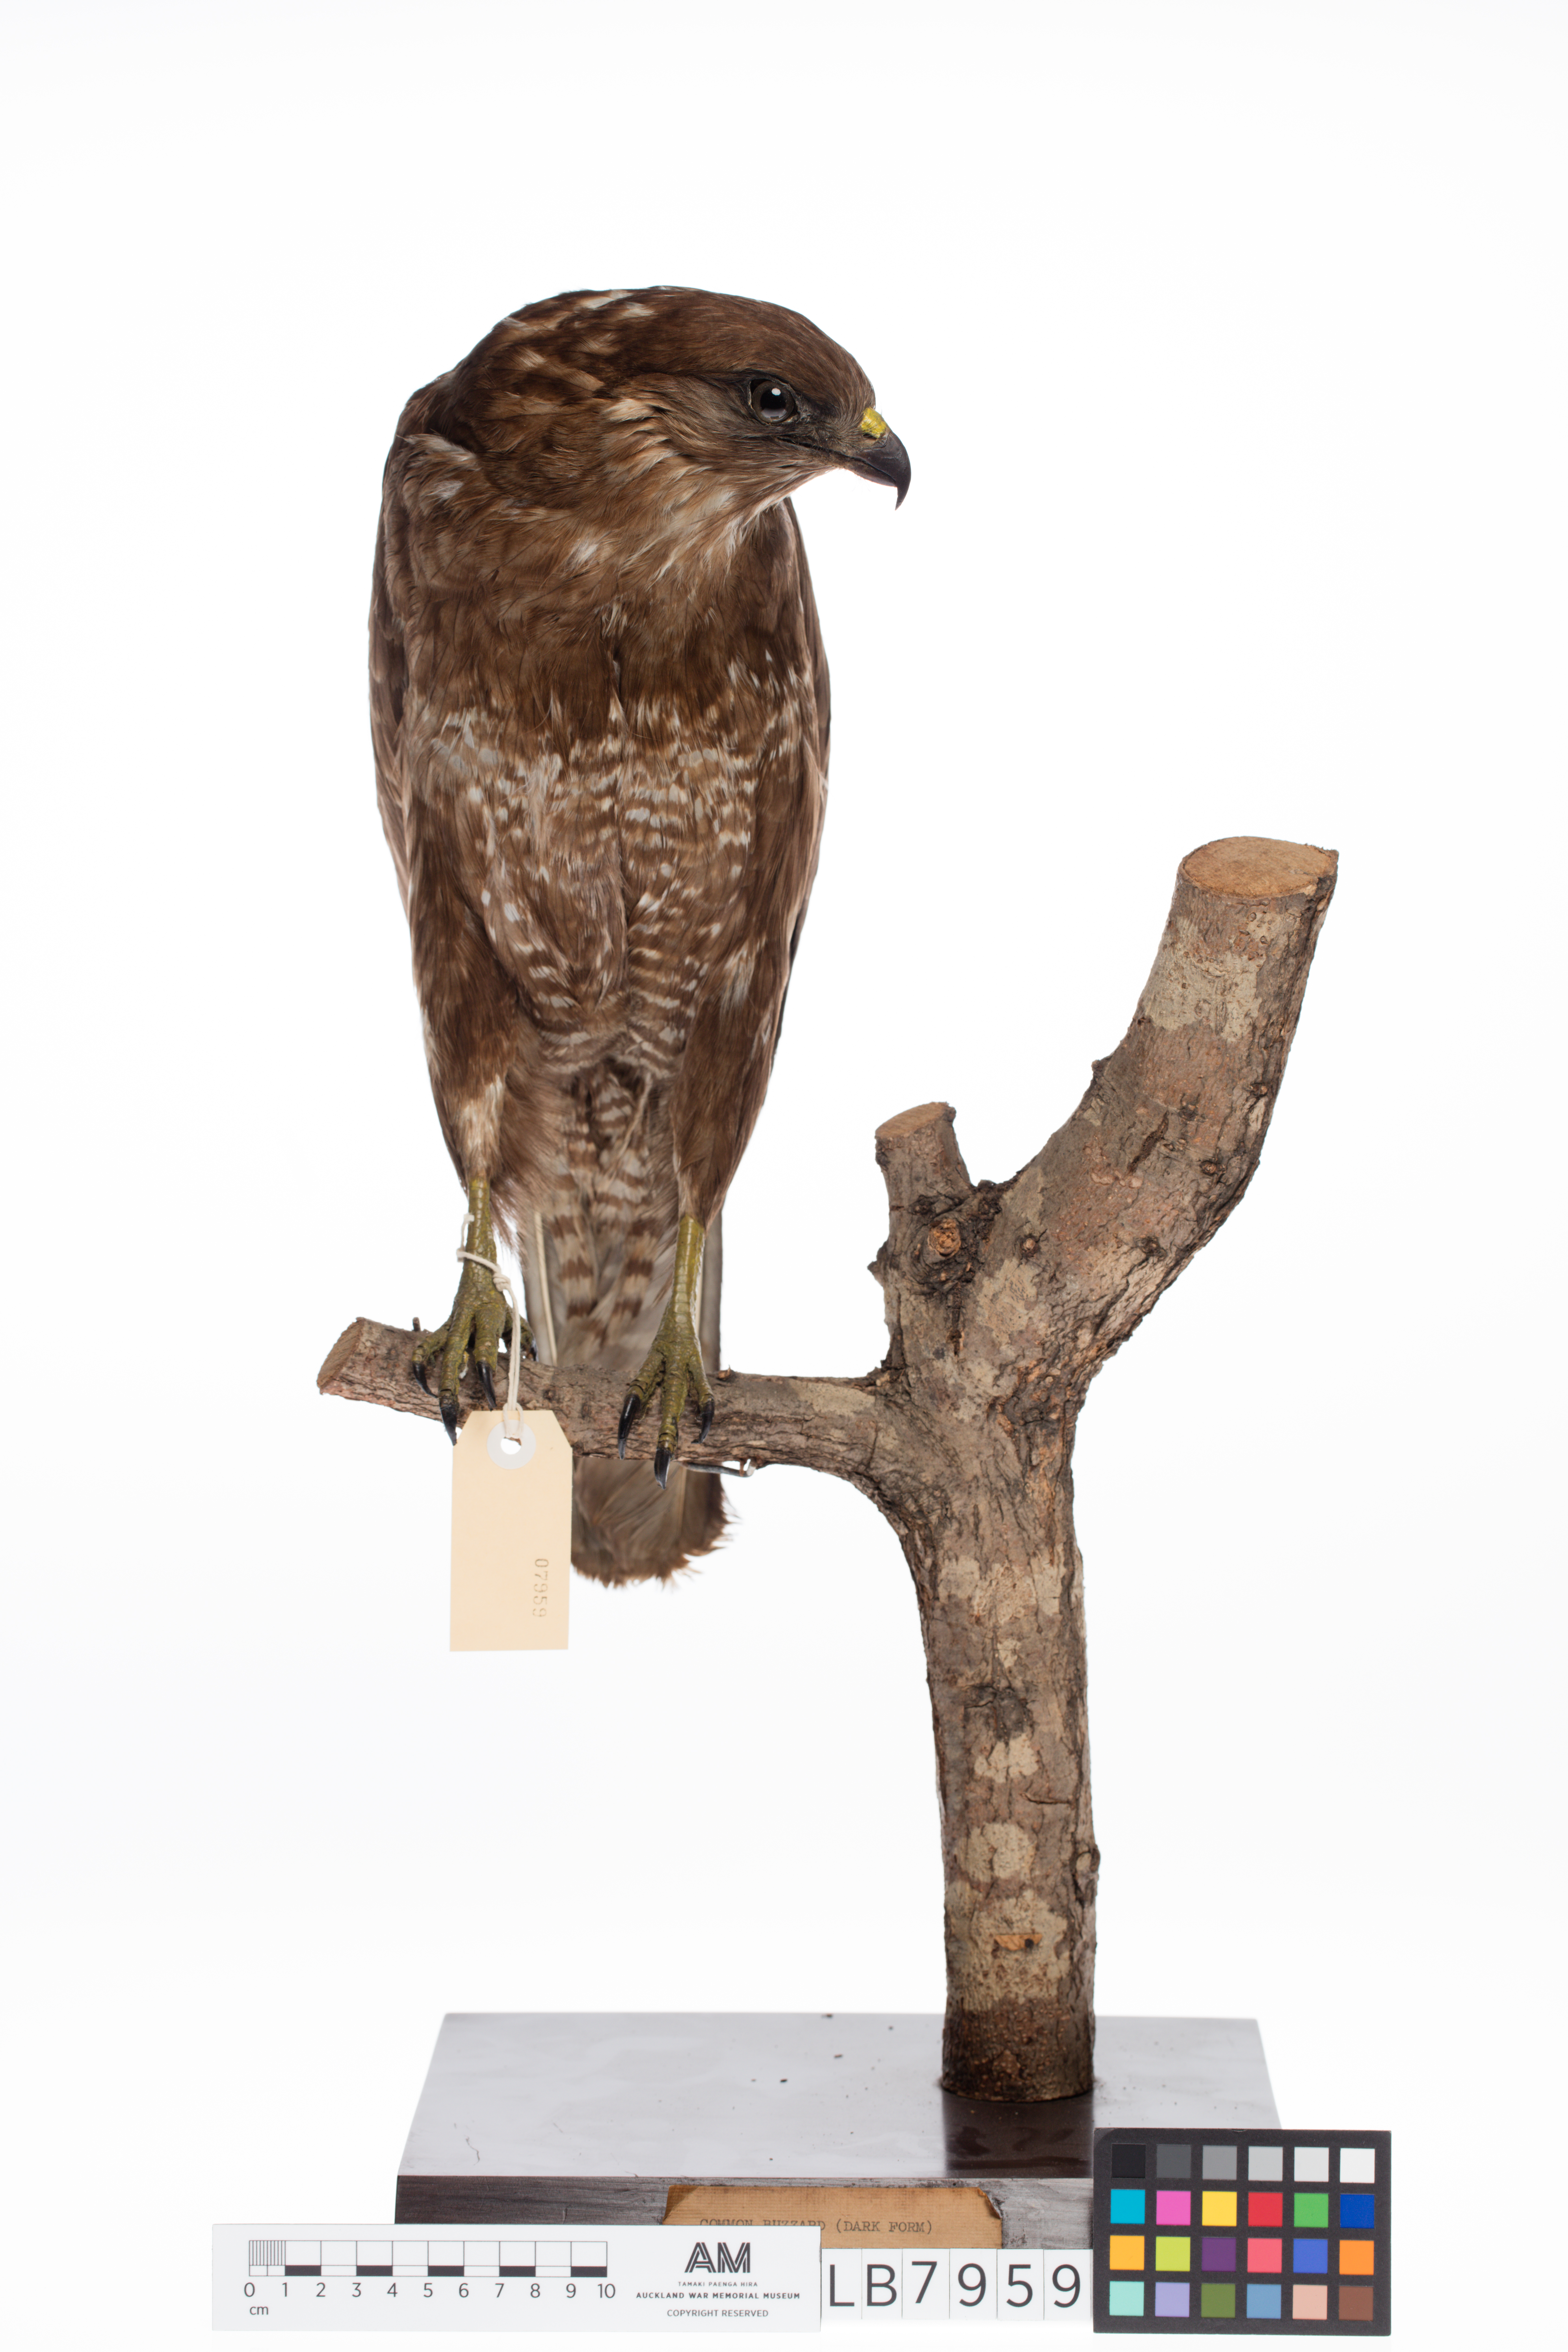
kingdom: Animalia
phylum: Chordata
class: Aves
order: Accipitriformes
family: Accipitridae
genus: Buteo
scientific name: Buteo buteo
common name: Common buzzard
